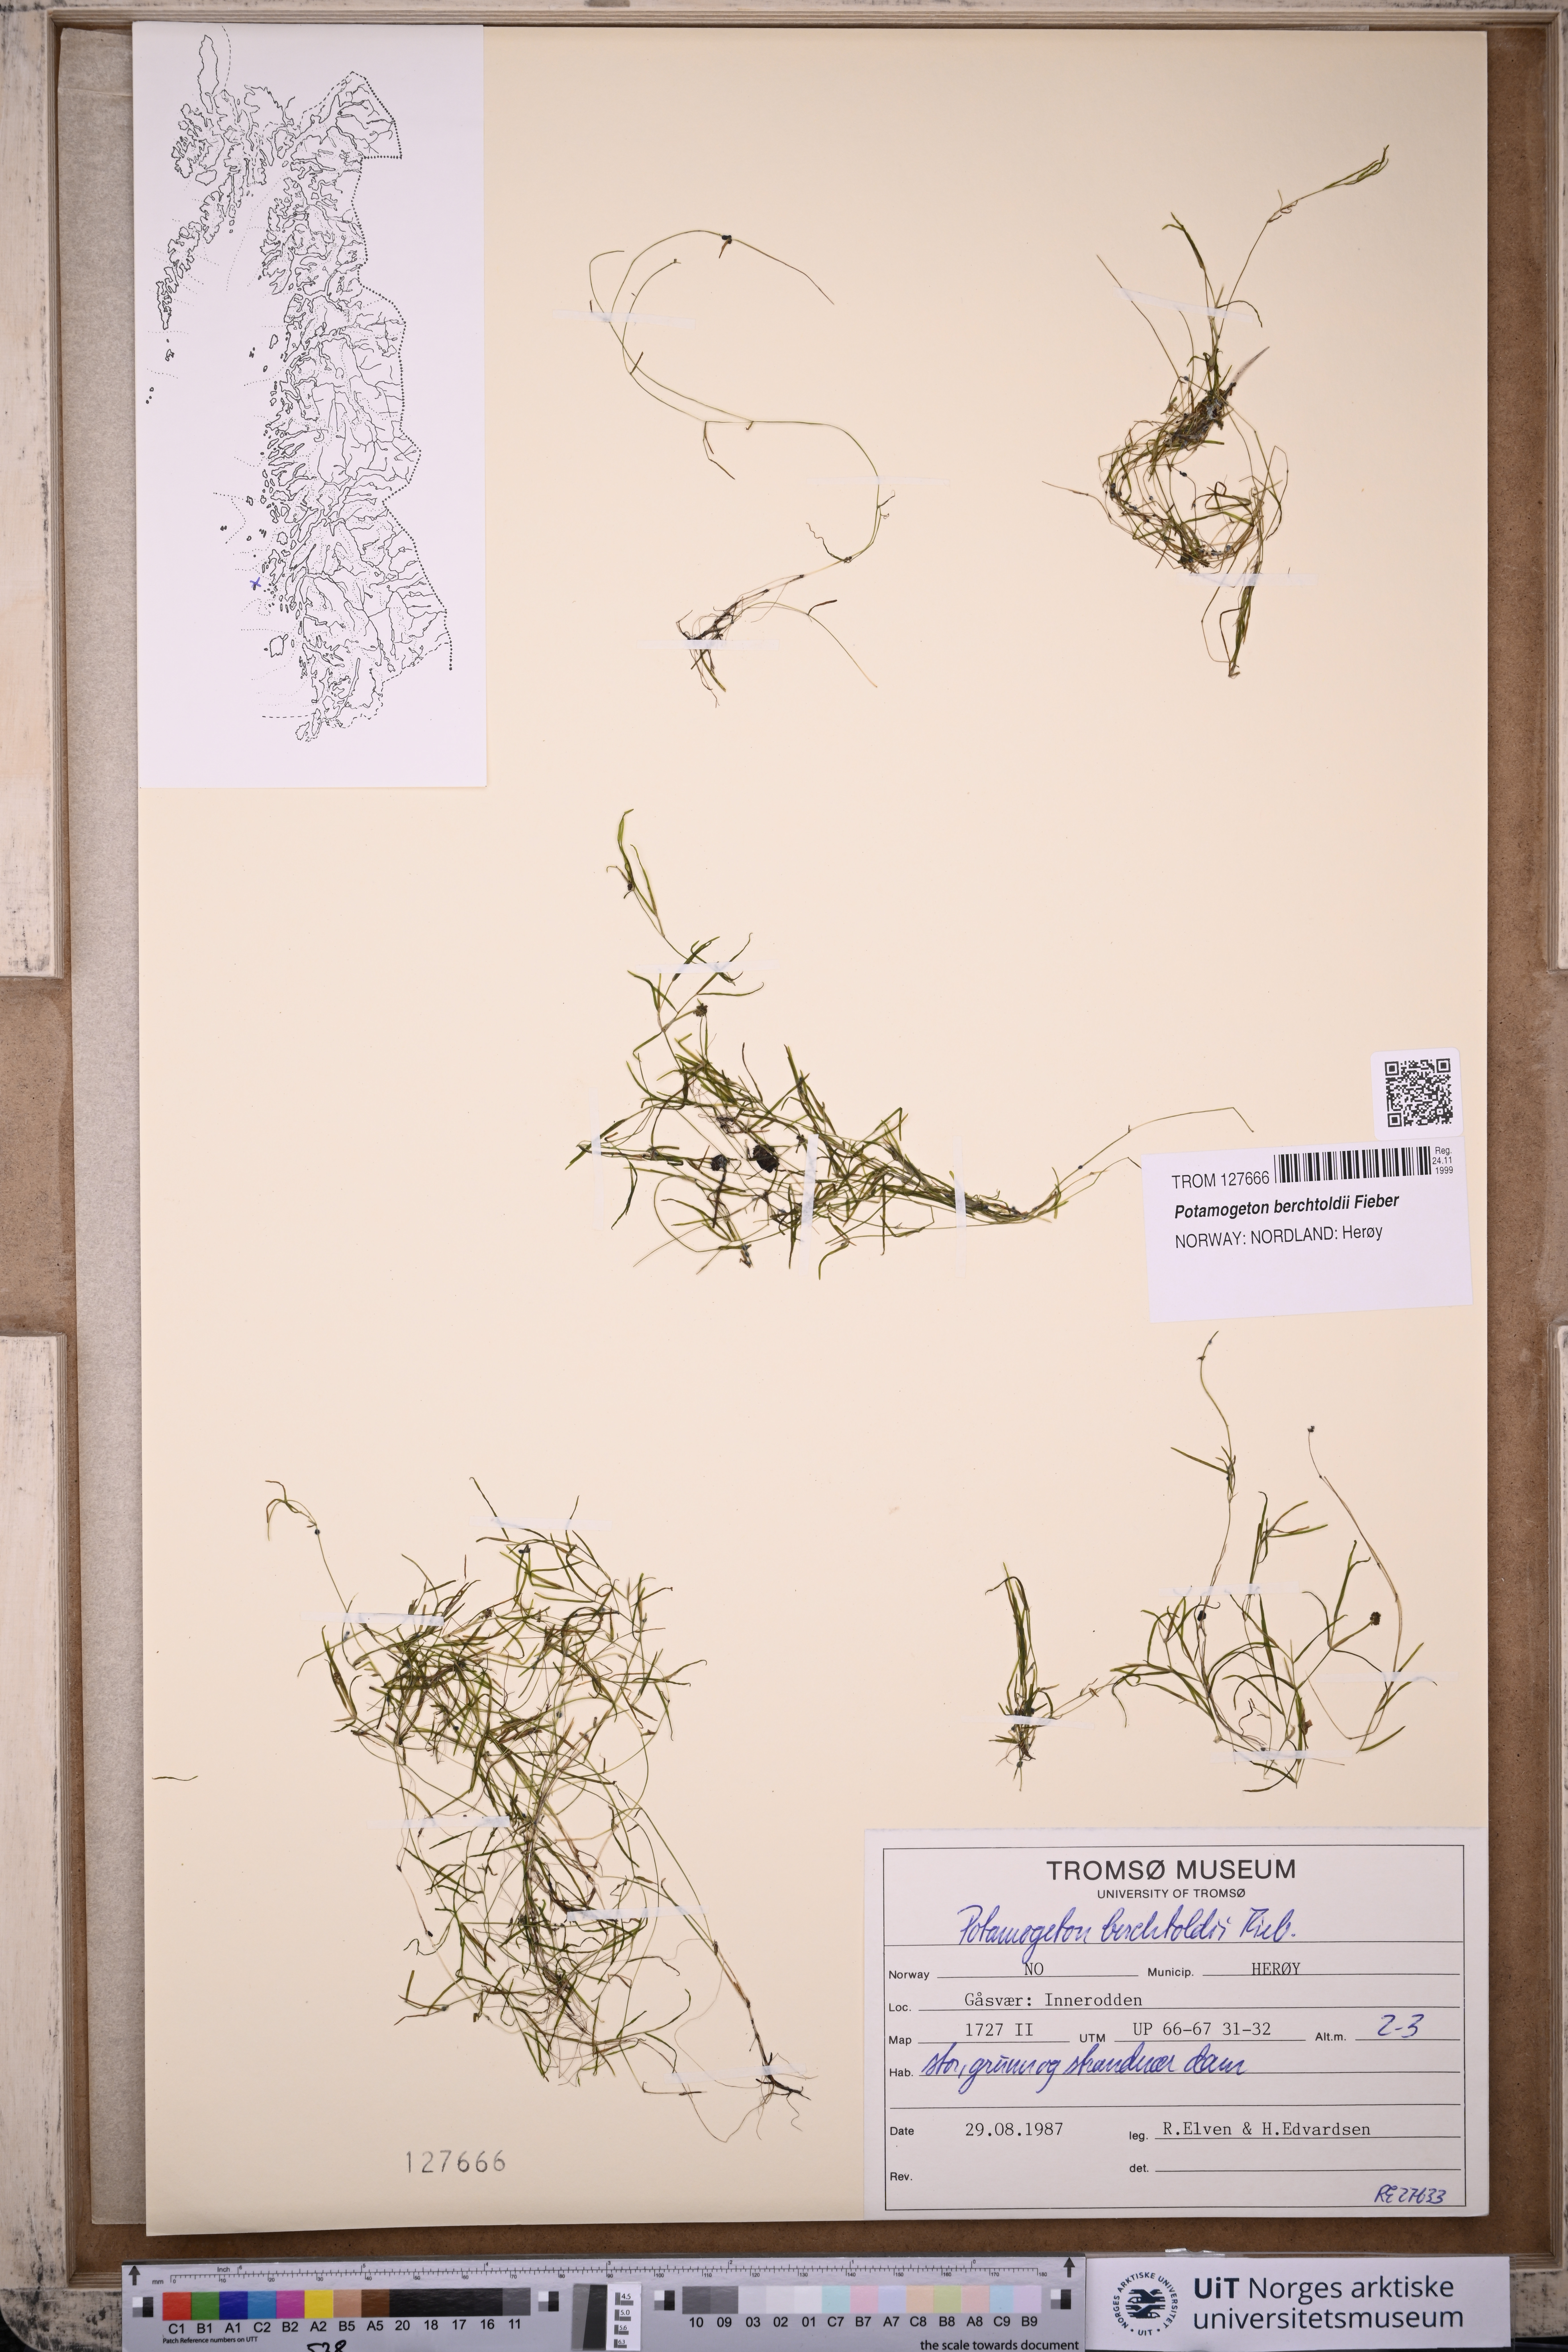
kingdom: Plantae
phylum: Tracheophyta
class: Liliopsida
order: Alismatales
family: Potamogetonaceae
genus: Potamogeton
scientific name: Potamogeton berchtoldii
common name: Small pondweed
